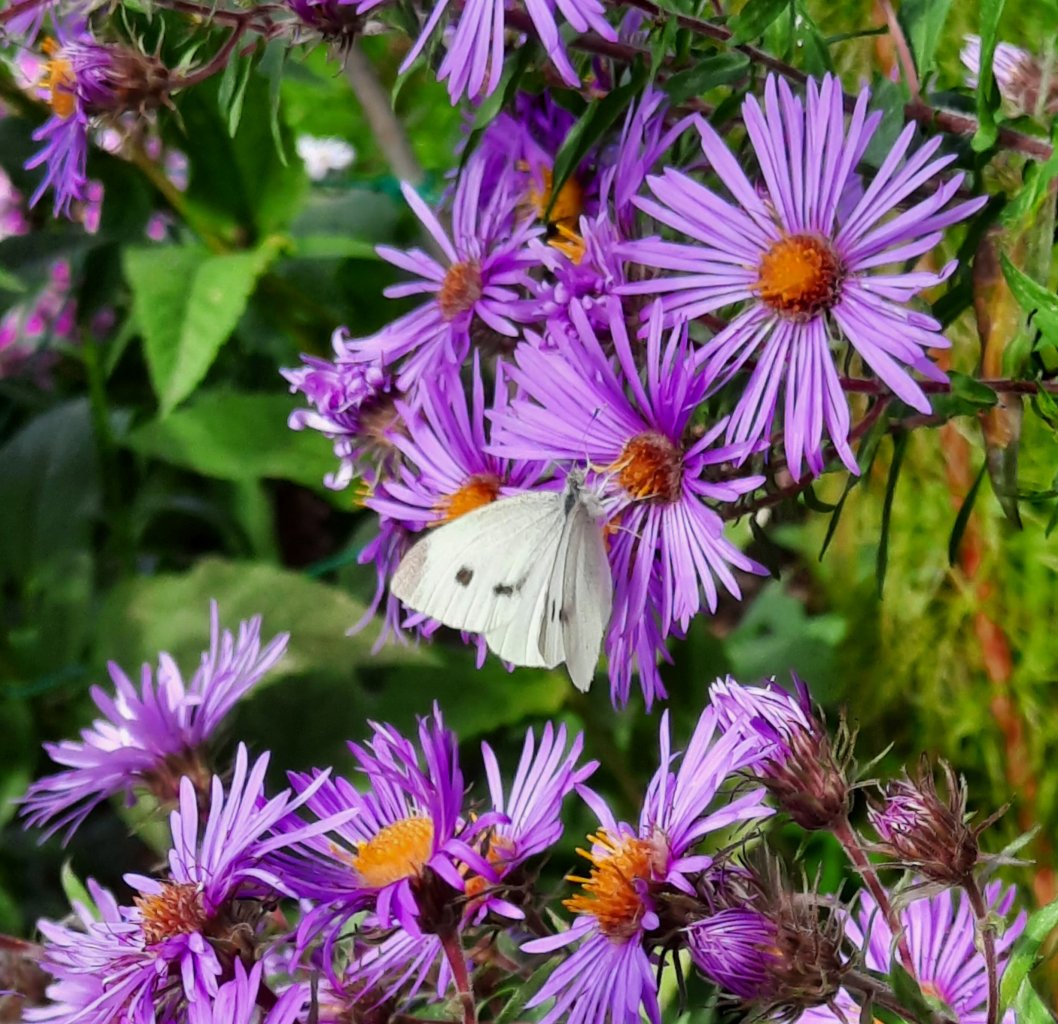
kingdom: Animalia
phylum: Arthropoda
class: Insecta
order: Lepidoptera
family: Pieridae
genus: Pieris
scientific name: Pieris rapae
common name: Cabbage White
